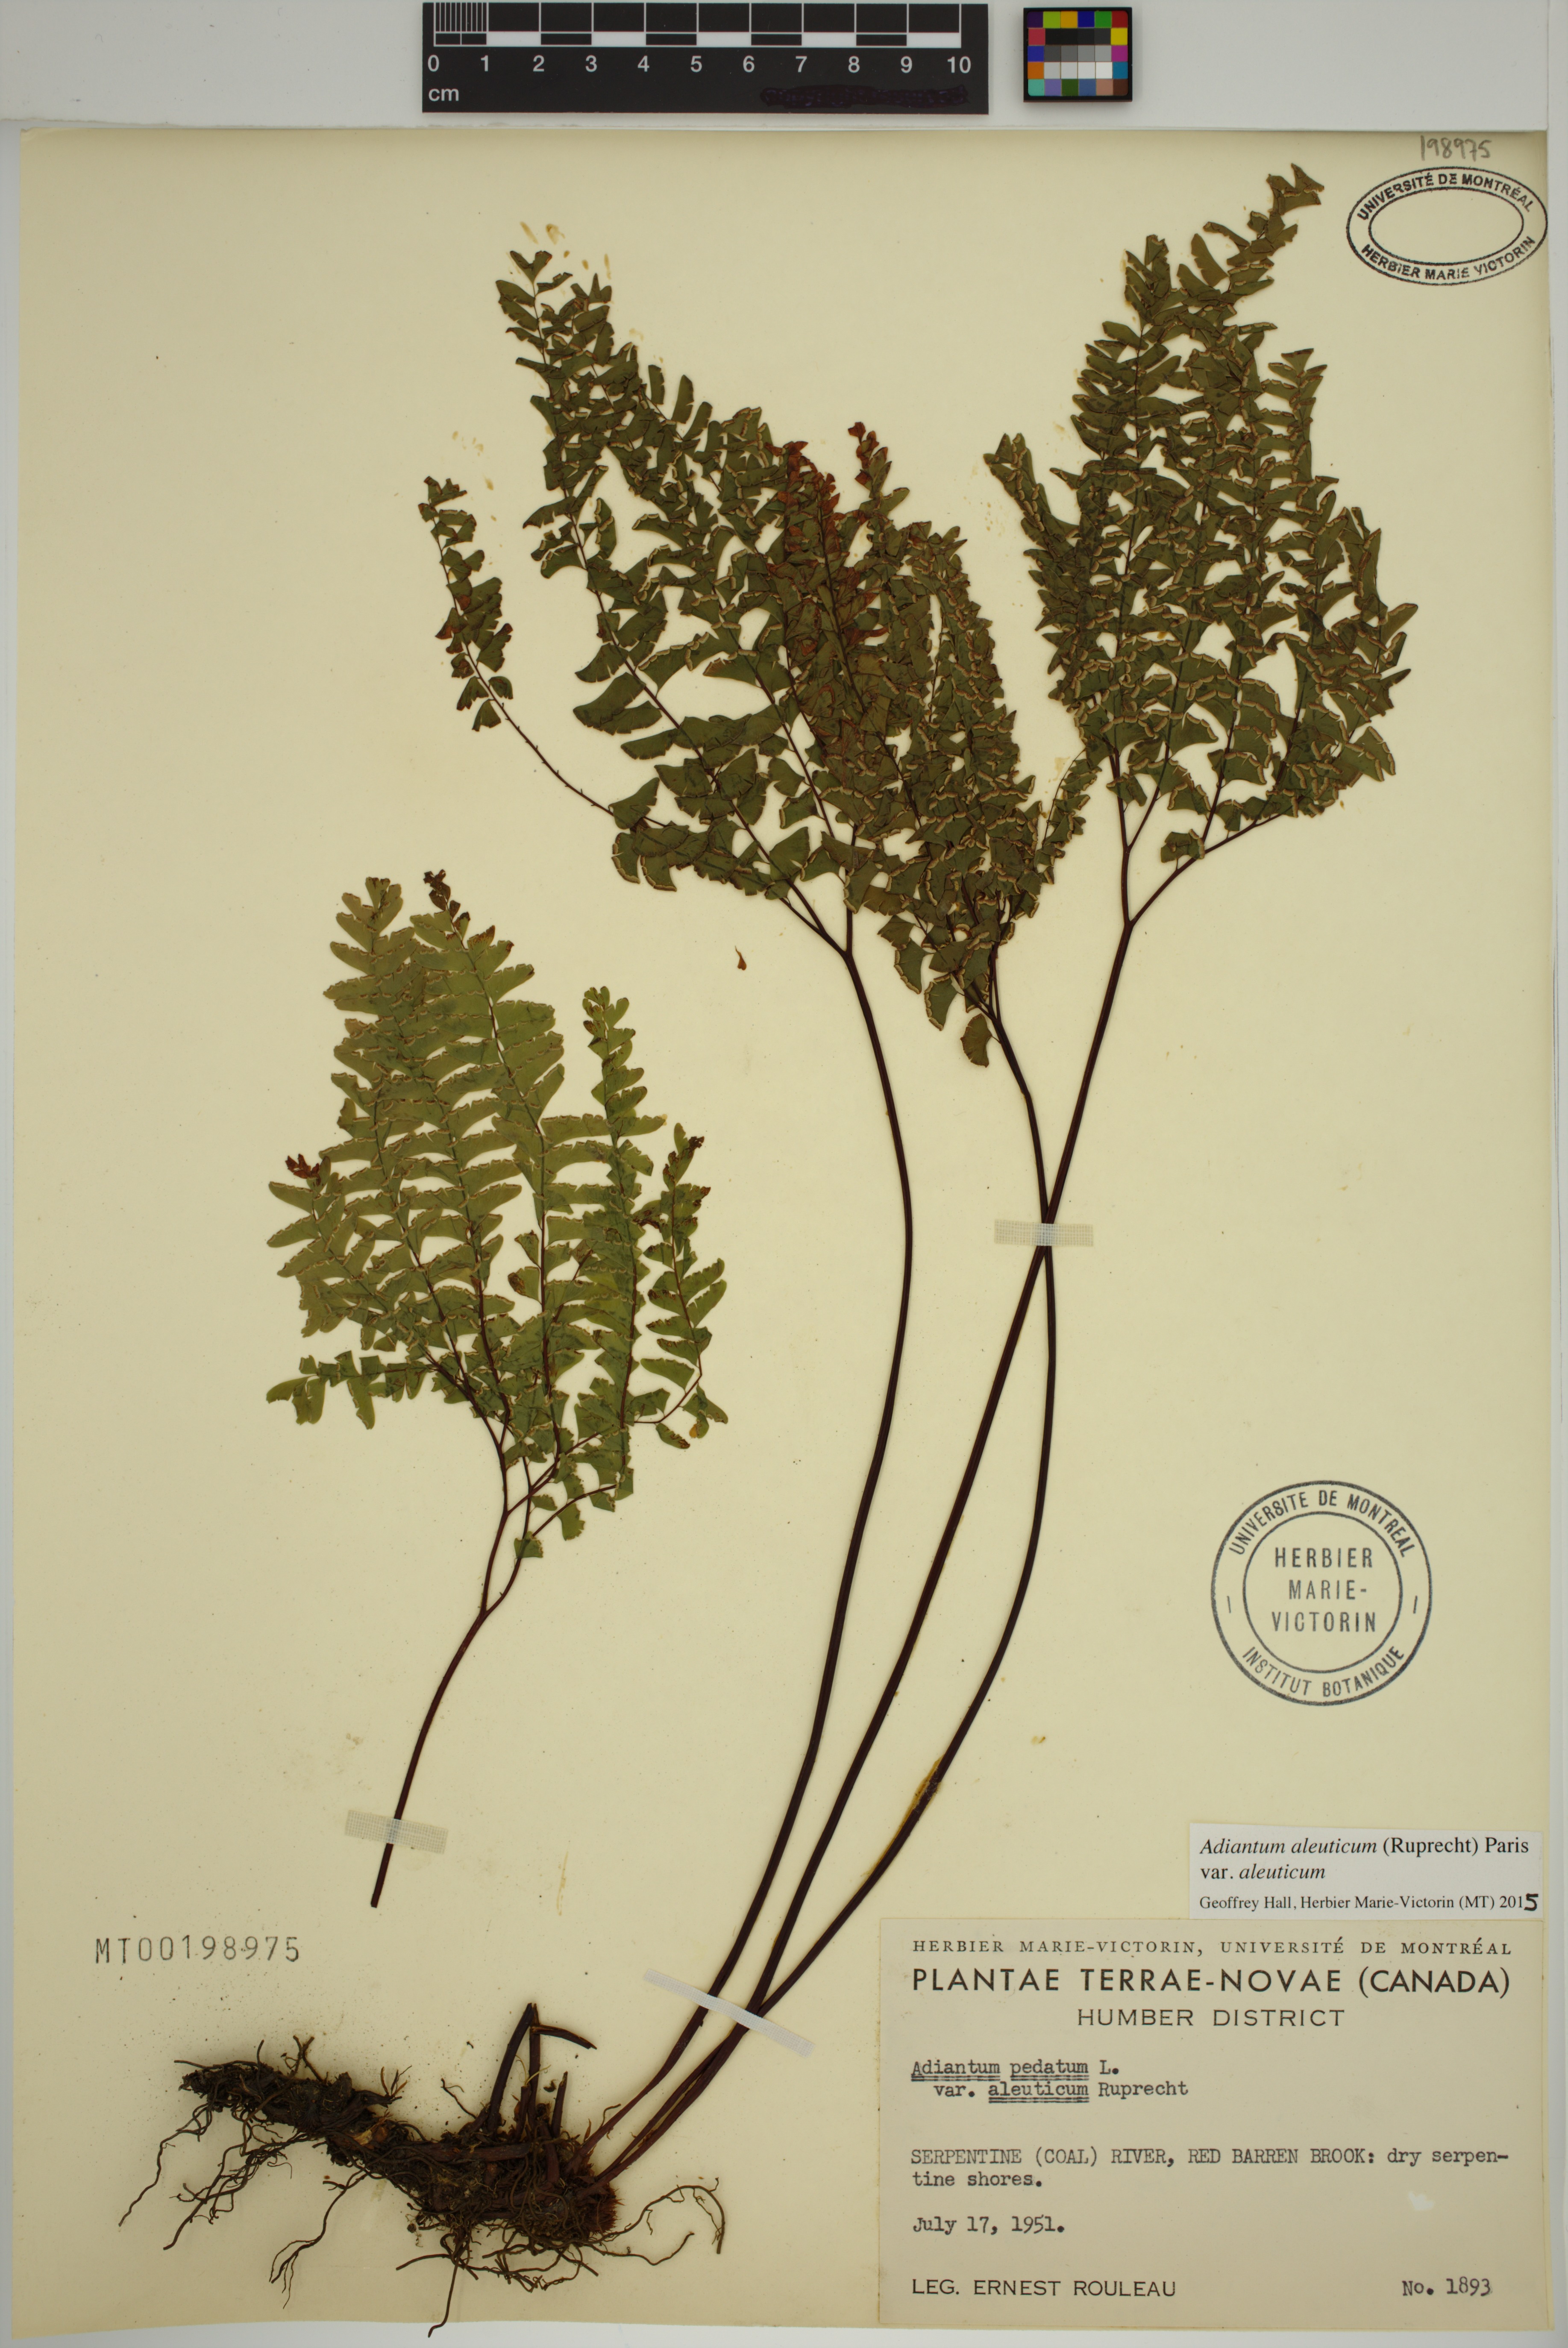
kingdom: Plantae
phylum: Tracheophyta
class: Polypodiopsida
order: Polypodiales
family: Pteridaceae
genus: Adiantum
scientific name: Adiantum aleuticum
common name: Aleutian maidenhair fern
